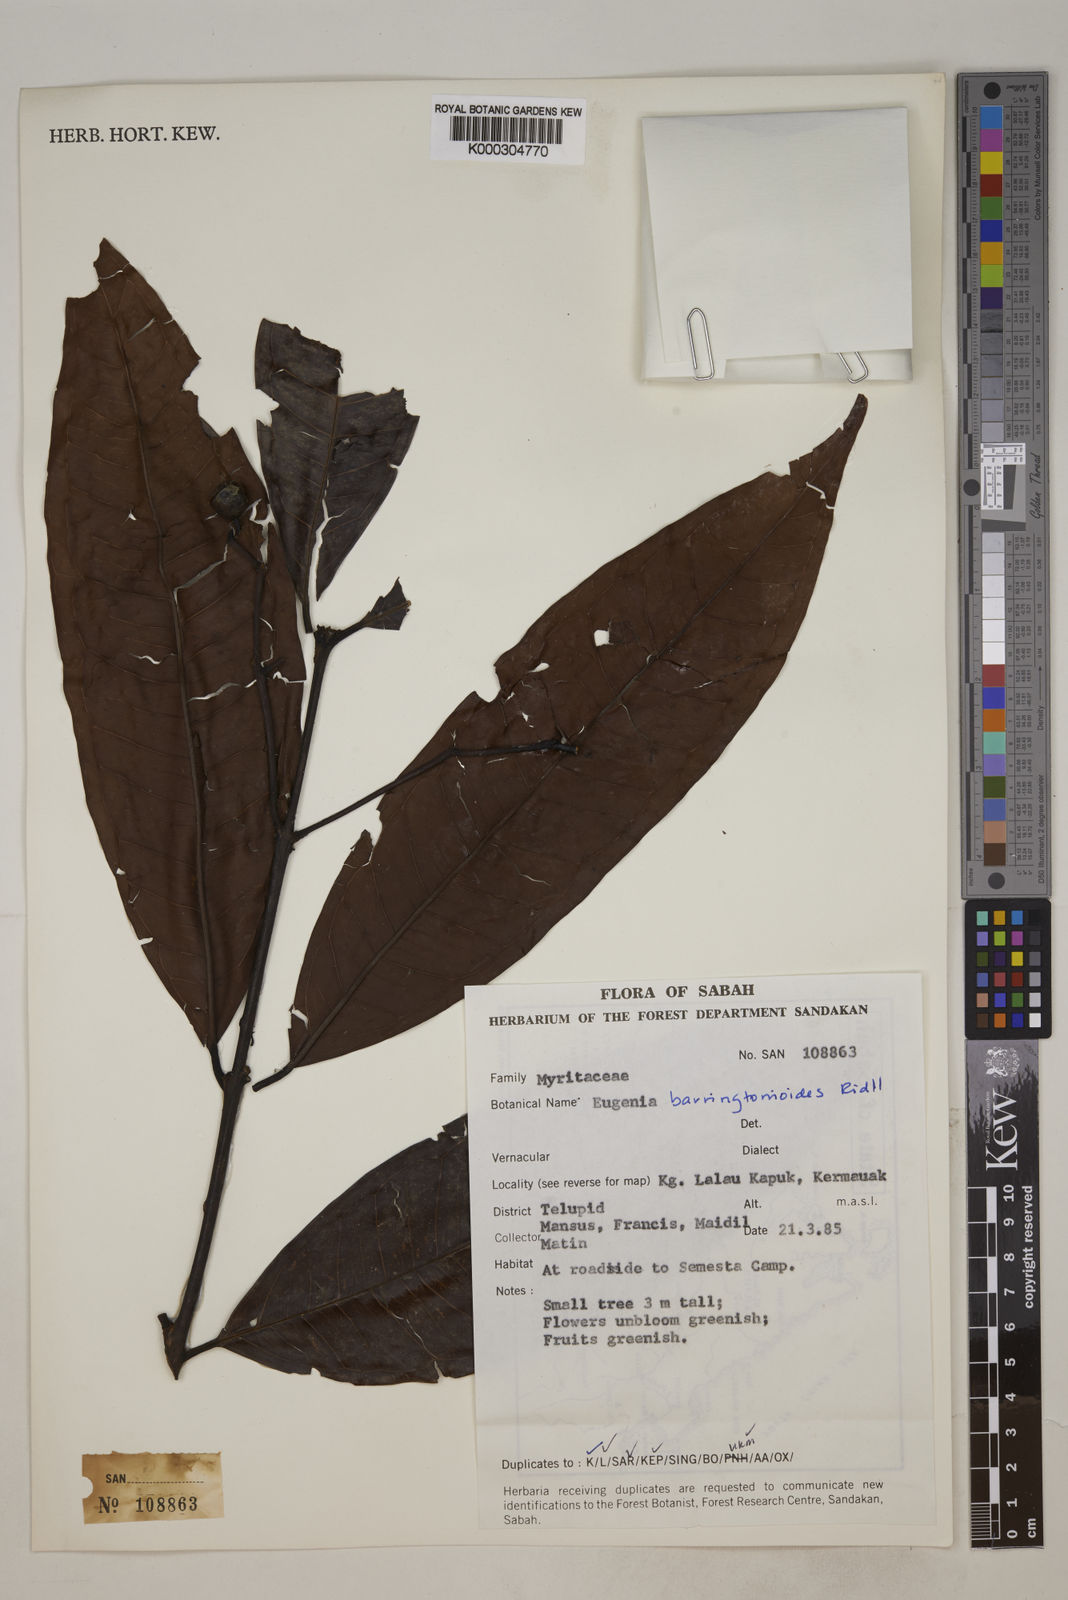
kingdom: Plantae
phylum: Tracheophyta
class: Magnoliopsida
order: Myrtales
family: Myrtaceae
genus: Syzygium
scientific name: Syzygium barringtonioides
